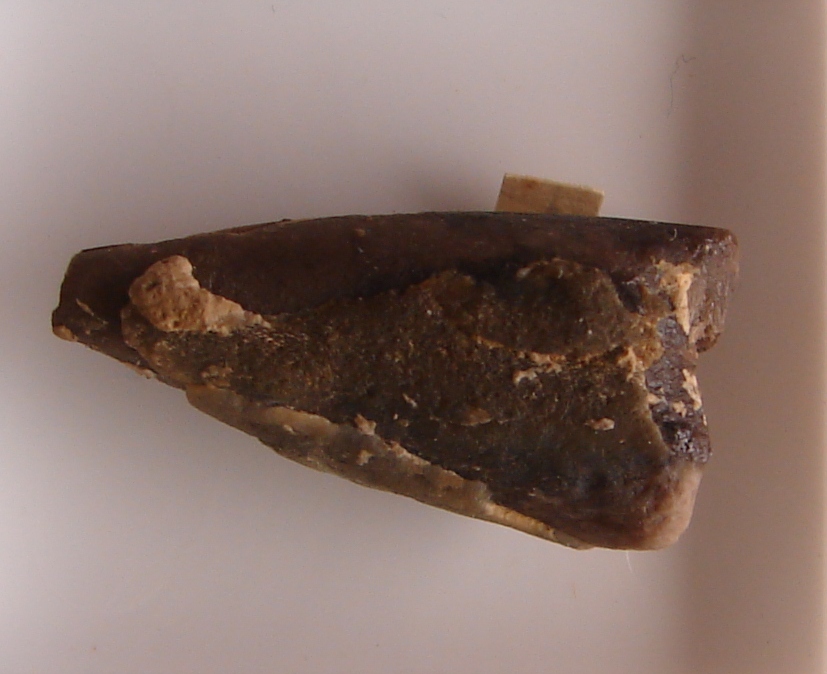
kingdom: Animalia
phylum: Mollusca
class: Cephalopoda
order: Belemnitida
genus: Coeloteuthis
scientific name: Coeloteuthis
